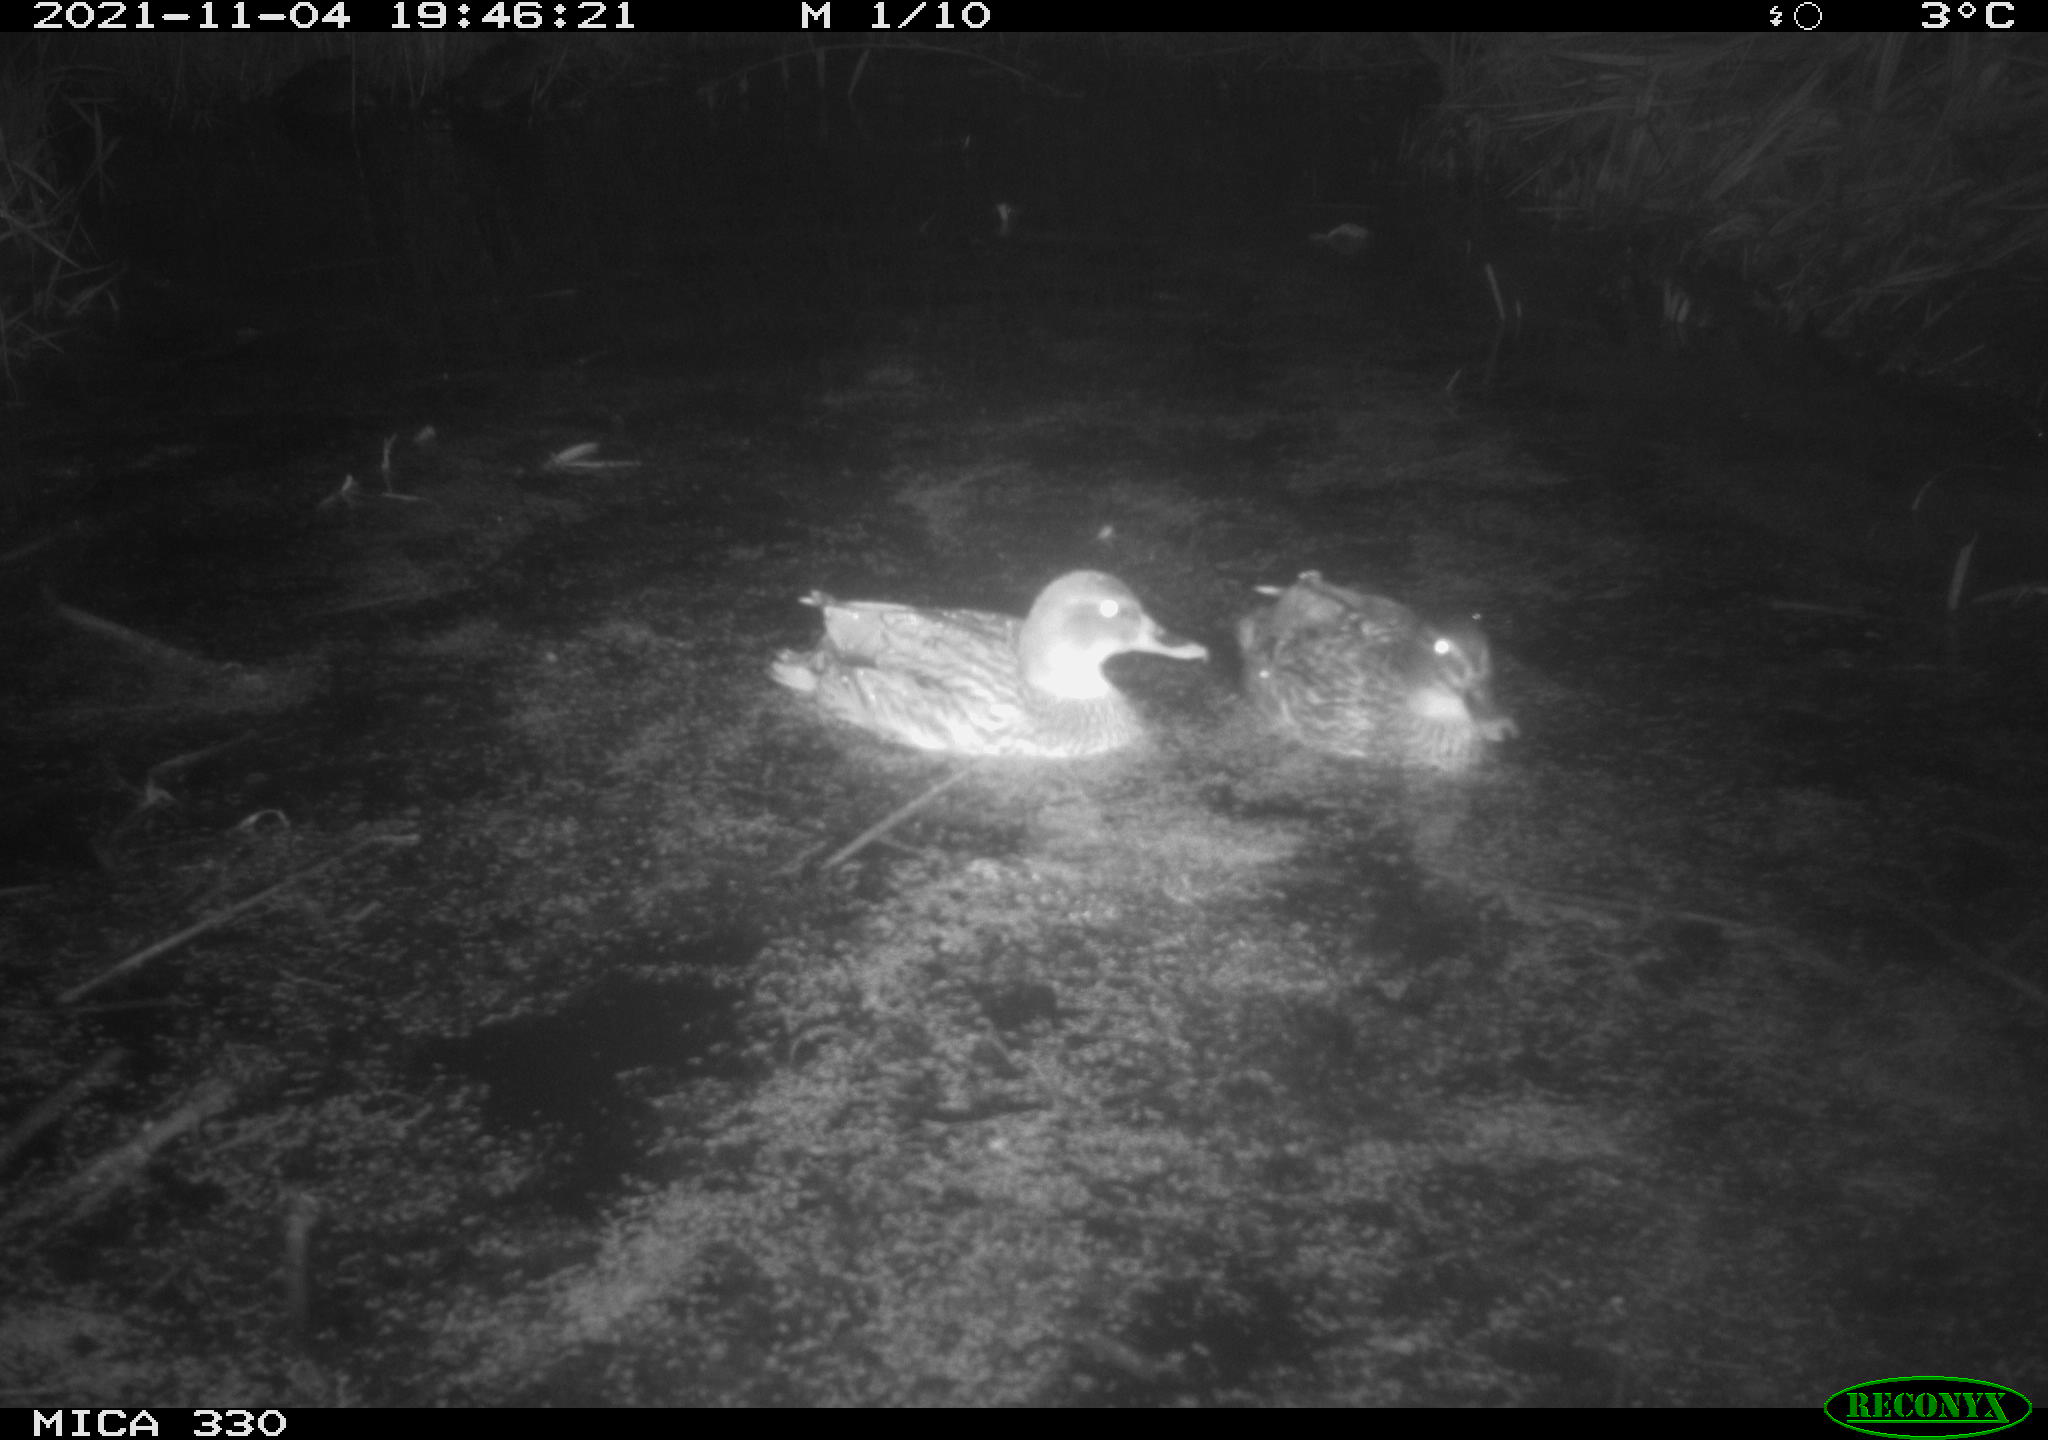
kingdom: Animalia
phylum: Chordata
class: Aves
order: Anseriformes
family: Anatidae
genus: Anas
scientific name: Anas platyrhynchos
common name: Mallard
